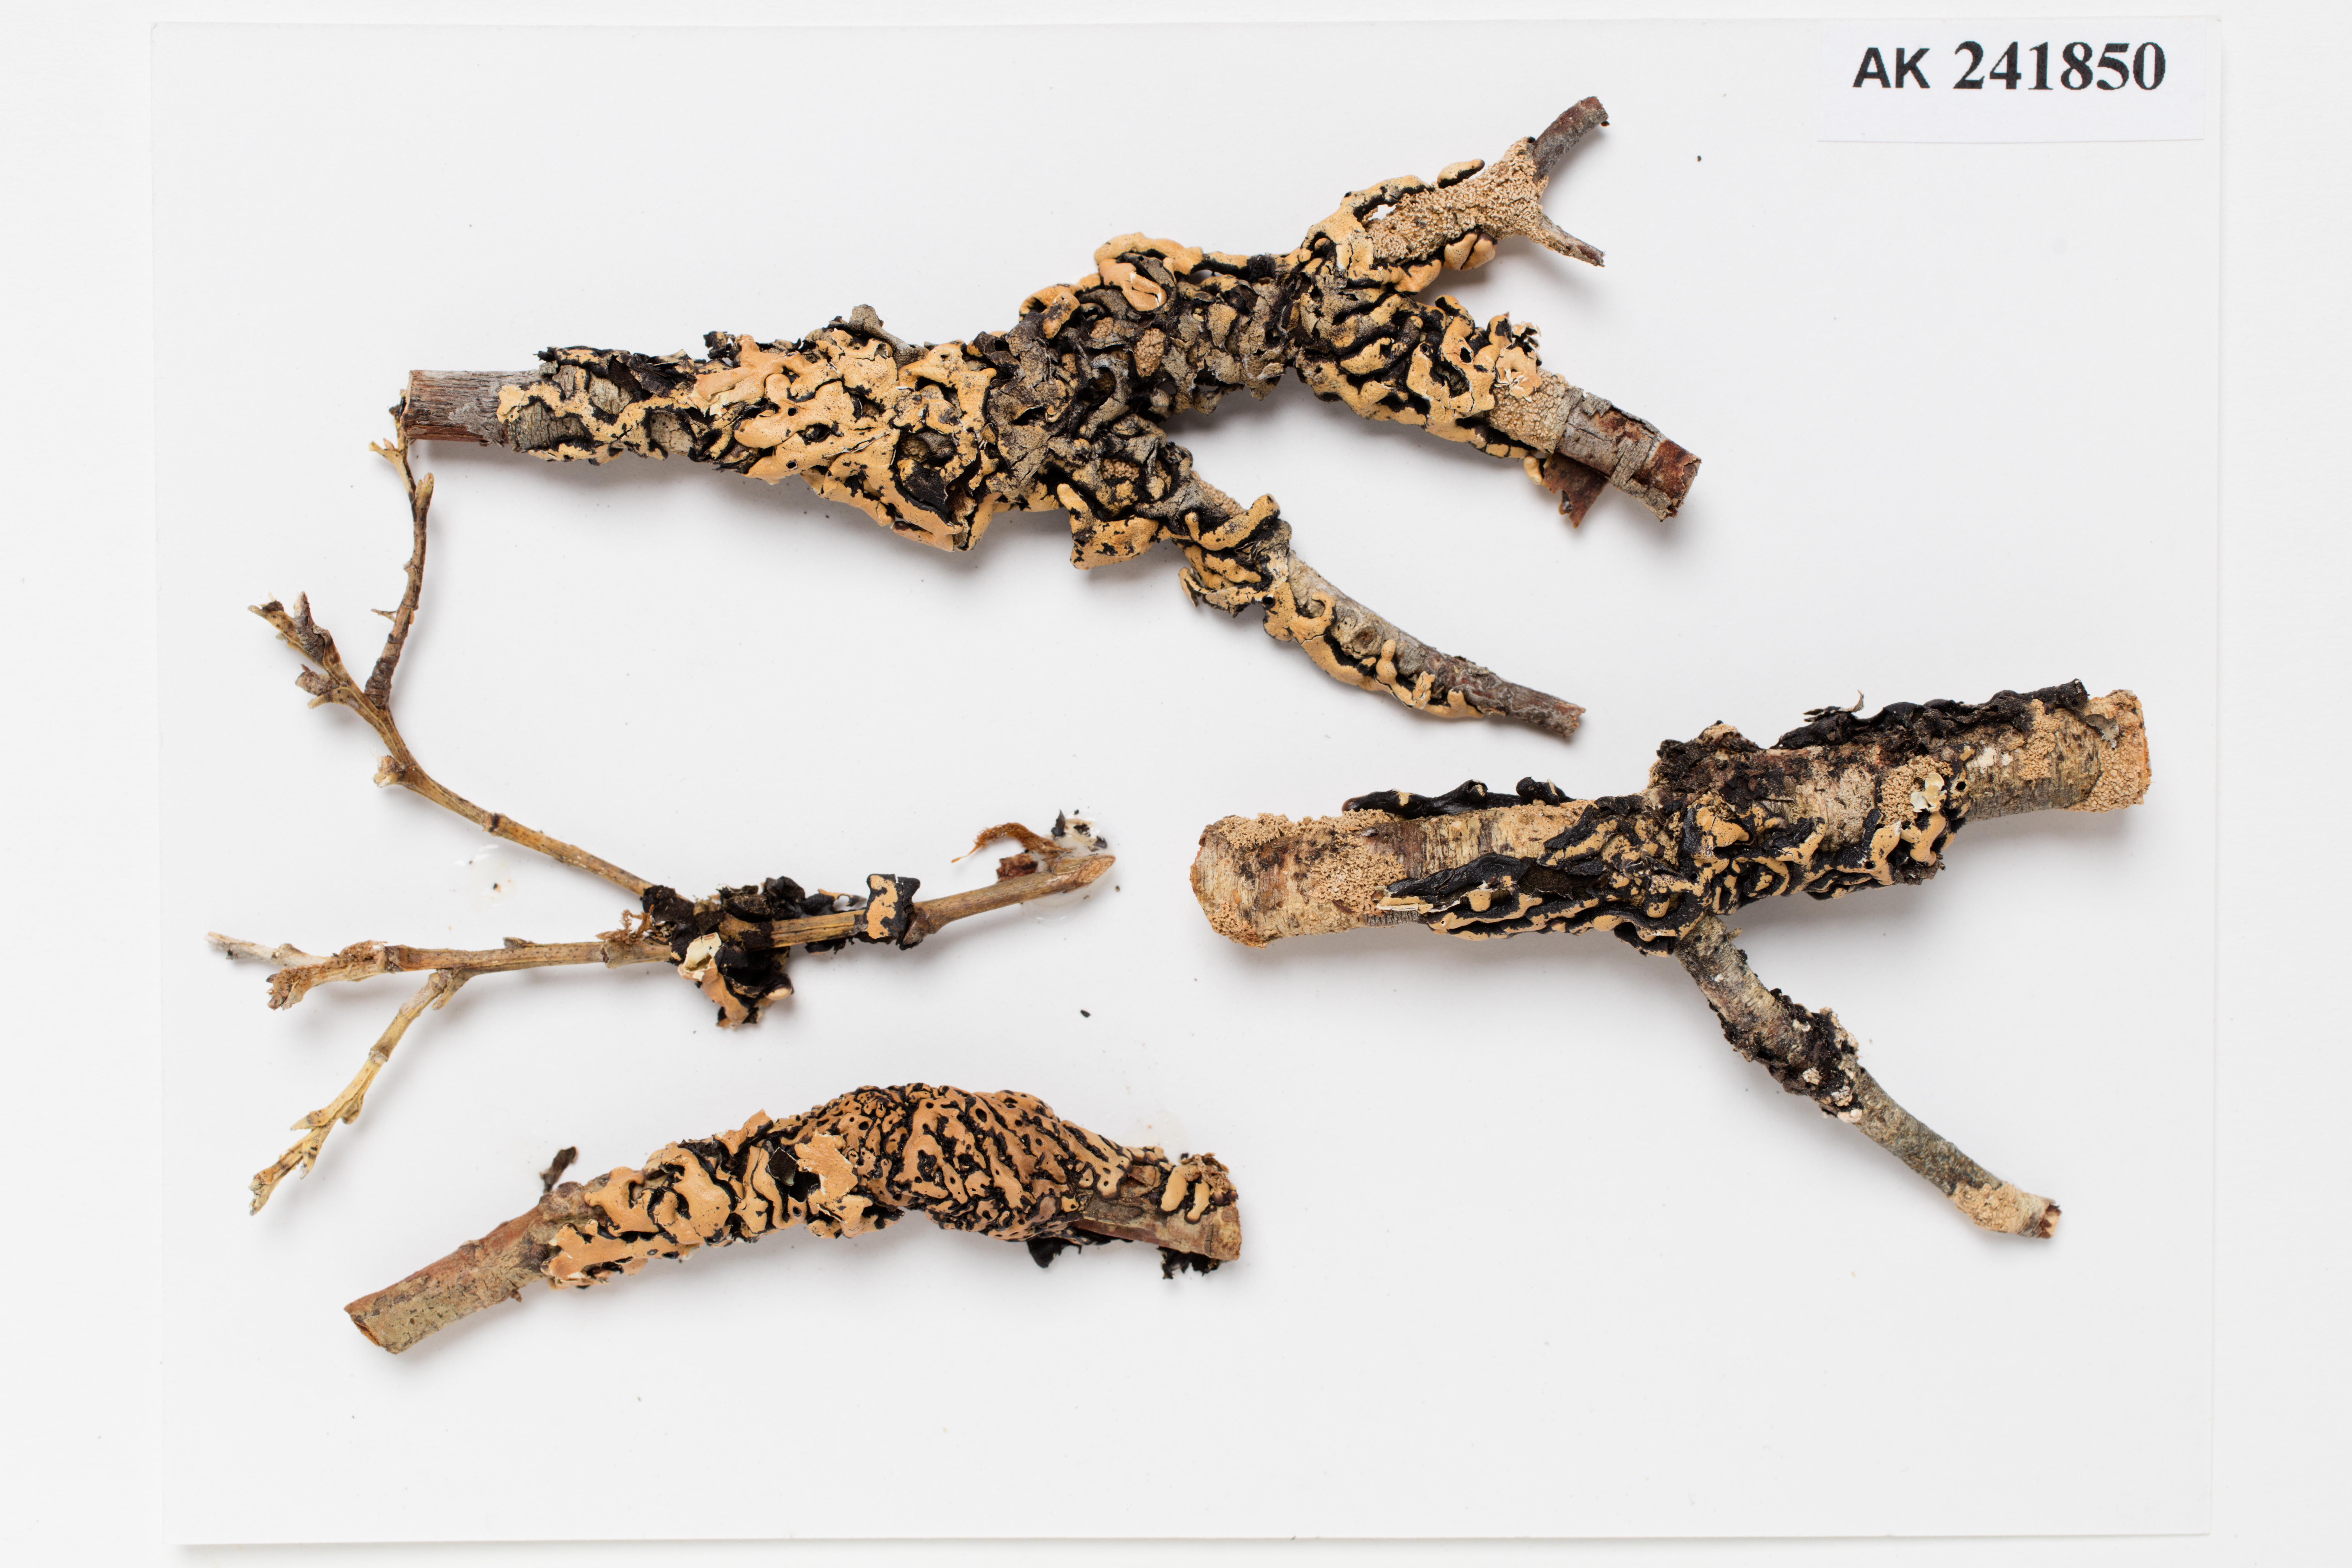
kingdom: Fungi
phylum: Ascomycota
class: Lecanoromycetes
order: Lecanorales
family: Parmeliaceae
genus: Menegazzia
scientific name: Menegazzia
